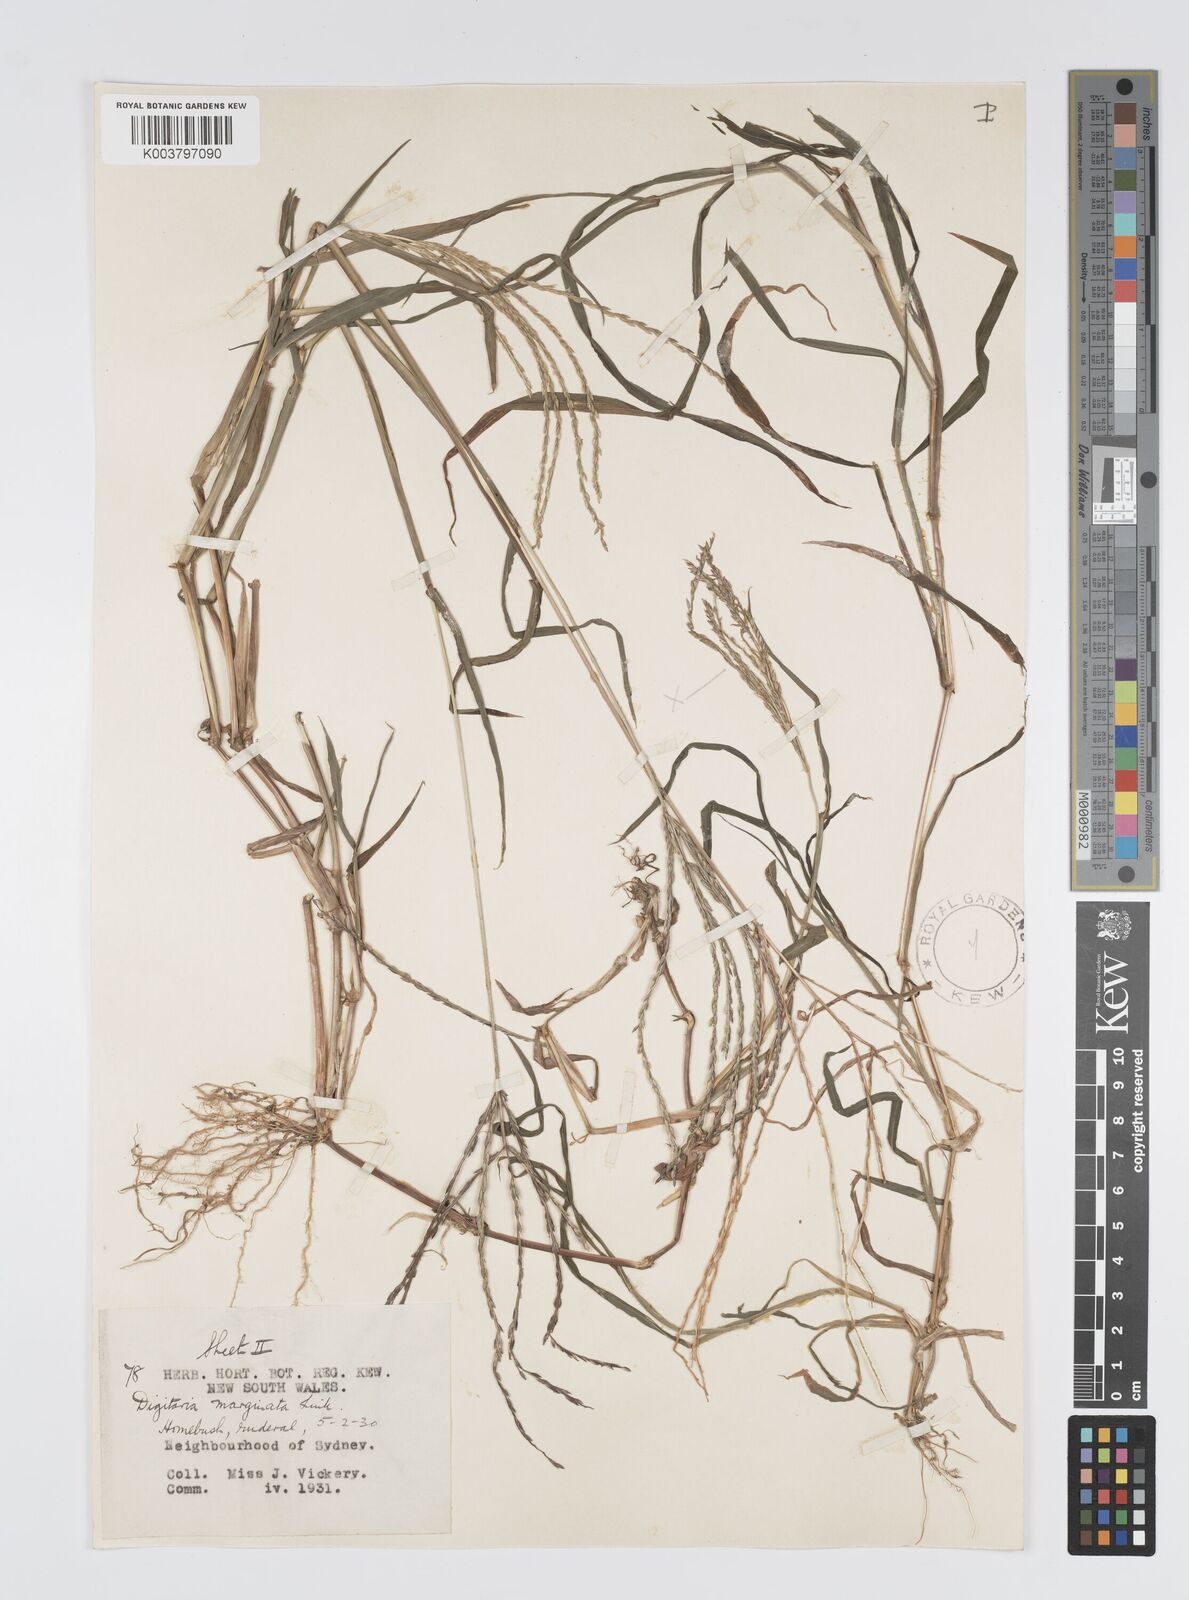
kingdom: Plantae
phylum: Tracheophyta
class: Liliopsida
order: Poales
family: Poaceae
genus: Digitaria
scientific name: Digitaria ciliaris
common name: Tropical finger-grass
